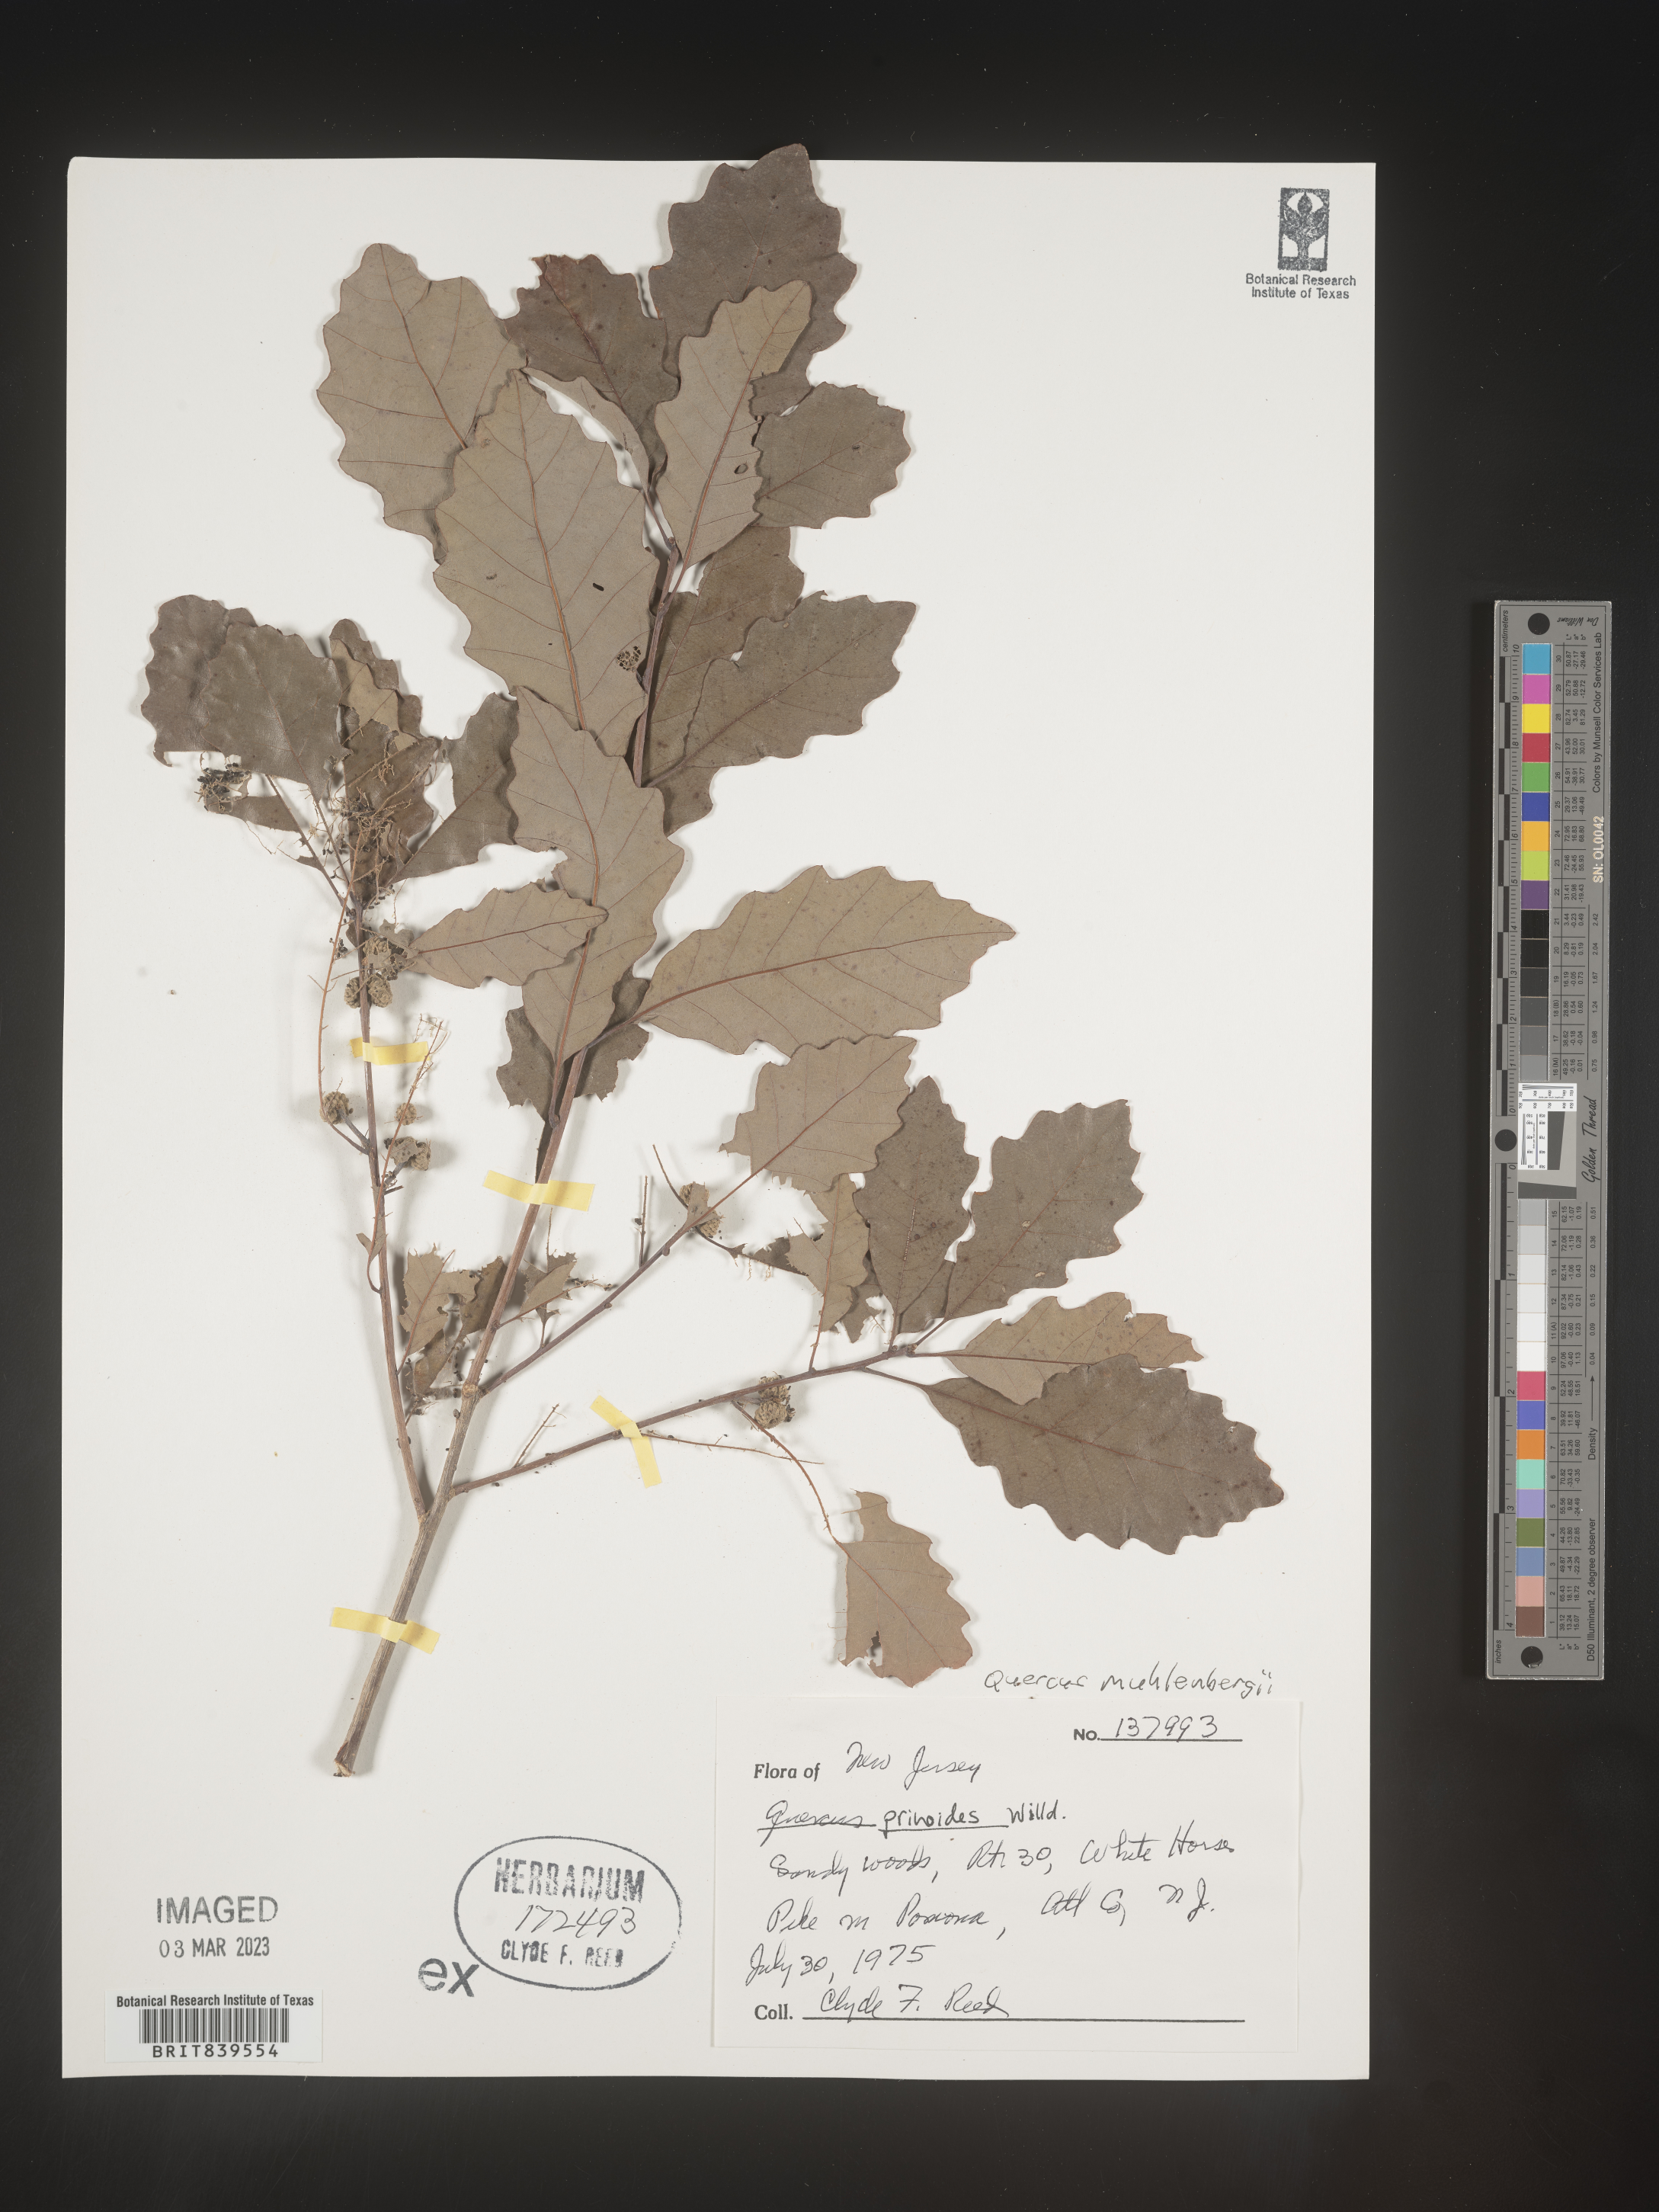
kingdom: Plantae
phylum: Tracheophyta
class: Magnoliopsida
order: Fagales
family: Fagaceae
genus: Quercus
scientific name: Quercus muehlenbergii
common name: Chinkapin oak
